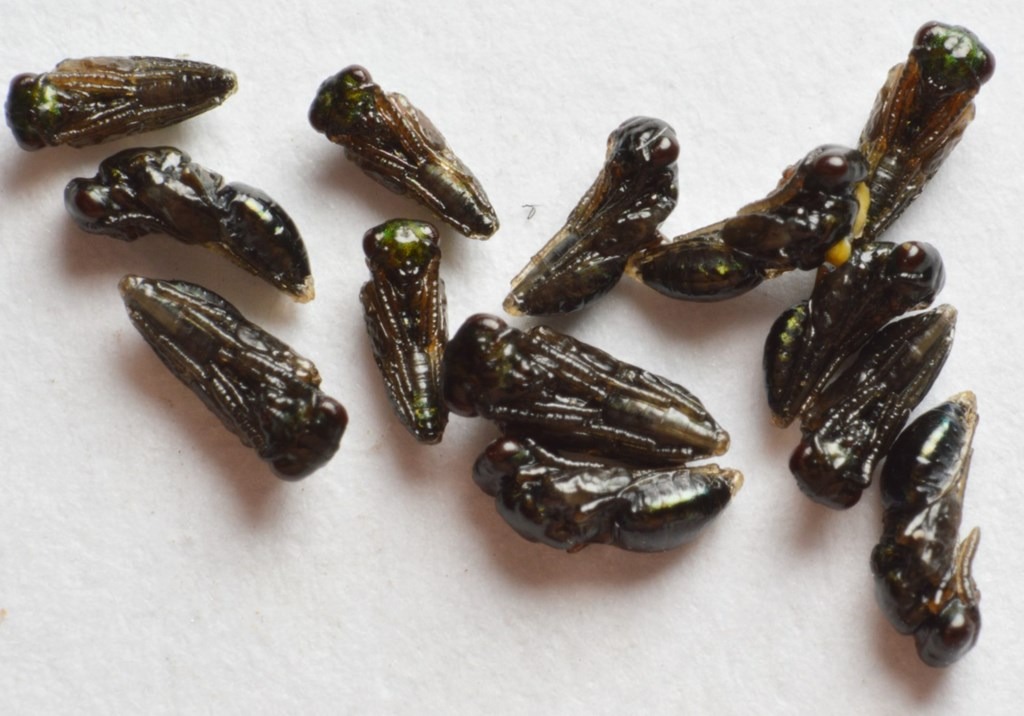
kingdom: Animalia
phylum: Arthropoda
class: Insecta
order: Hymenoptera
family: Pteromalidae
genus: Pteromalus
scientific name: Pteromalus puparum
